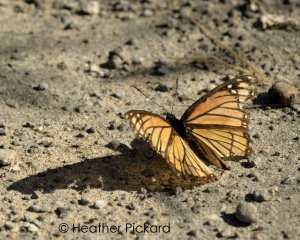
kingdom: Animalia
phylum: Arthropoda
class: Insecta
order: Lepidoptera
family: Nymphalidae
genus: Limenitis
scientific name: Limenitis archippus
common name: Viceroy
